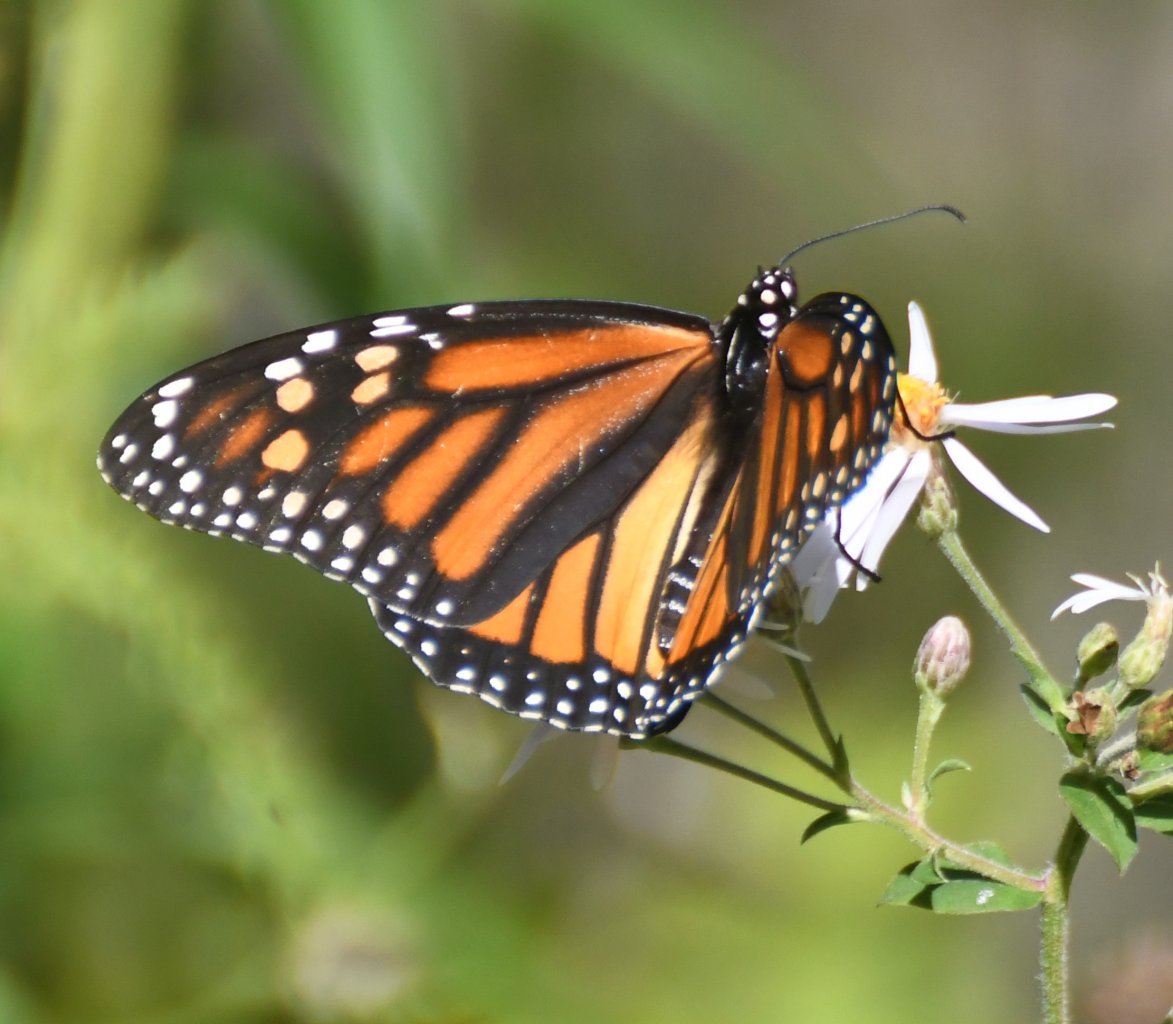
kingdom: Animalia
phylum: Arthropoda
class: Insecta
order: Lepidoptera
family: Nymphalidae
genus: Danaus
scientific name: Danaus plexippus
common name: Monarch
